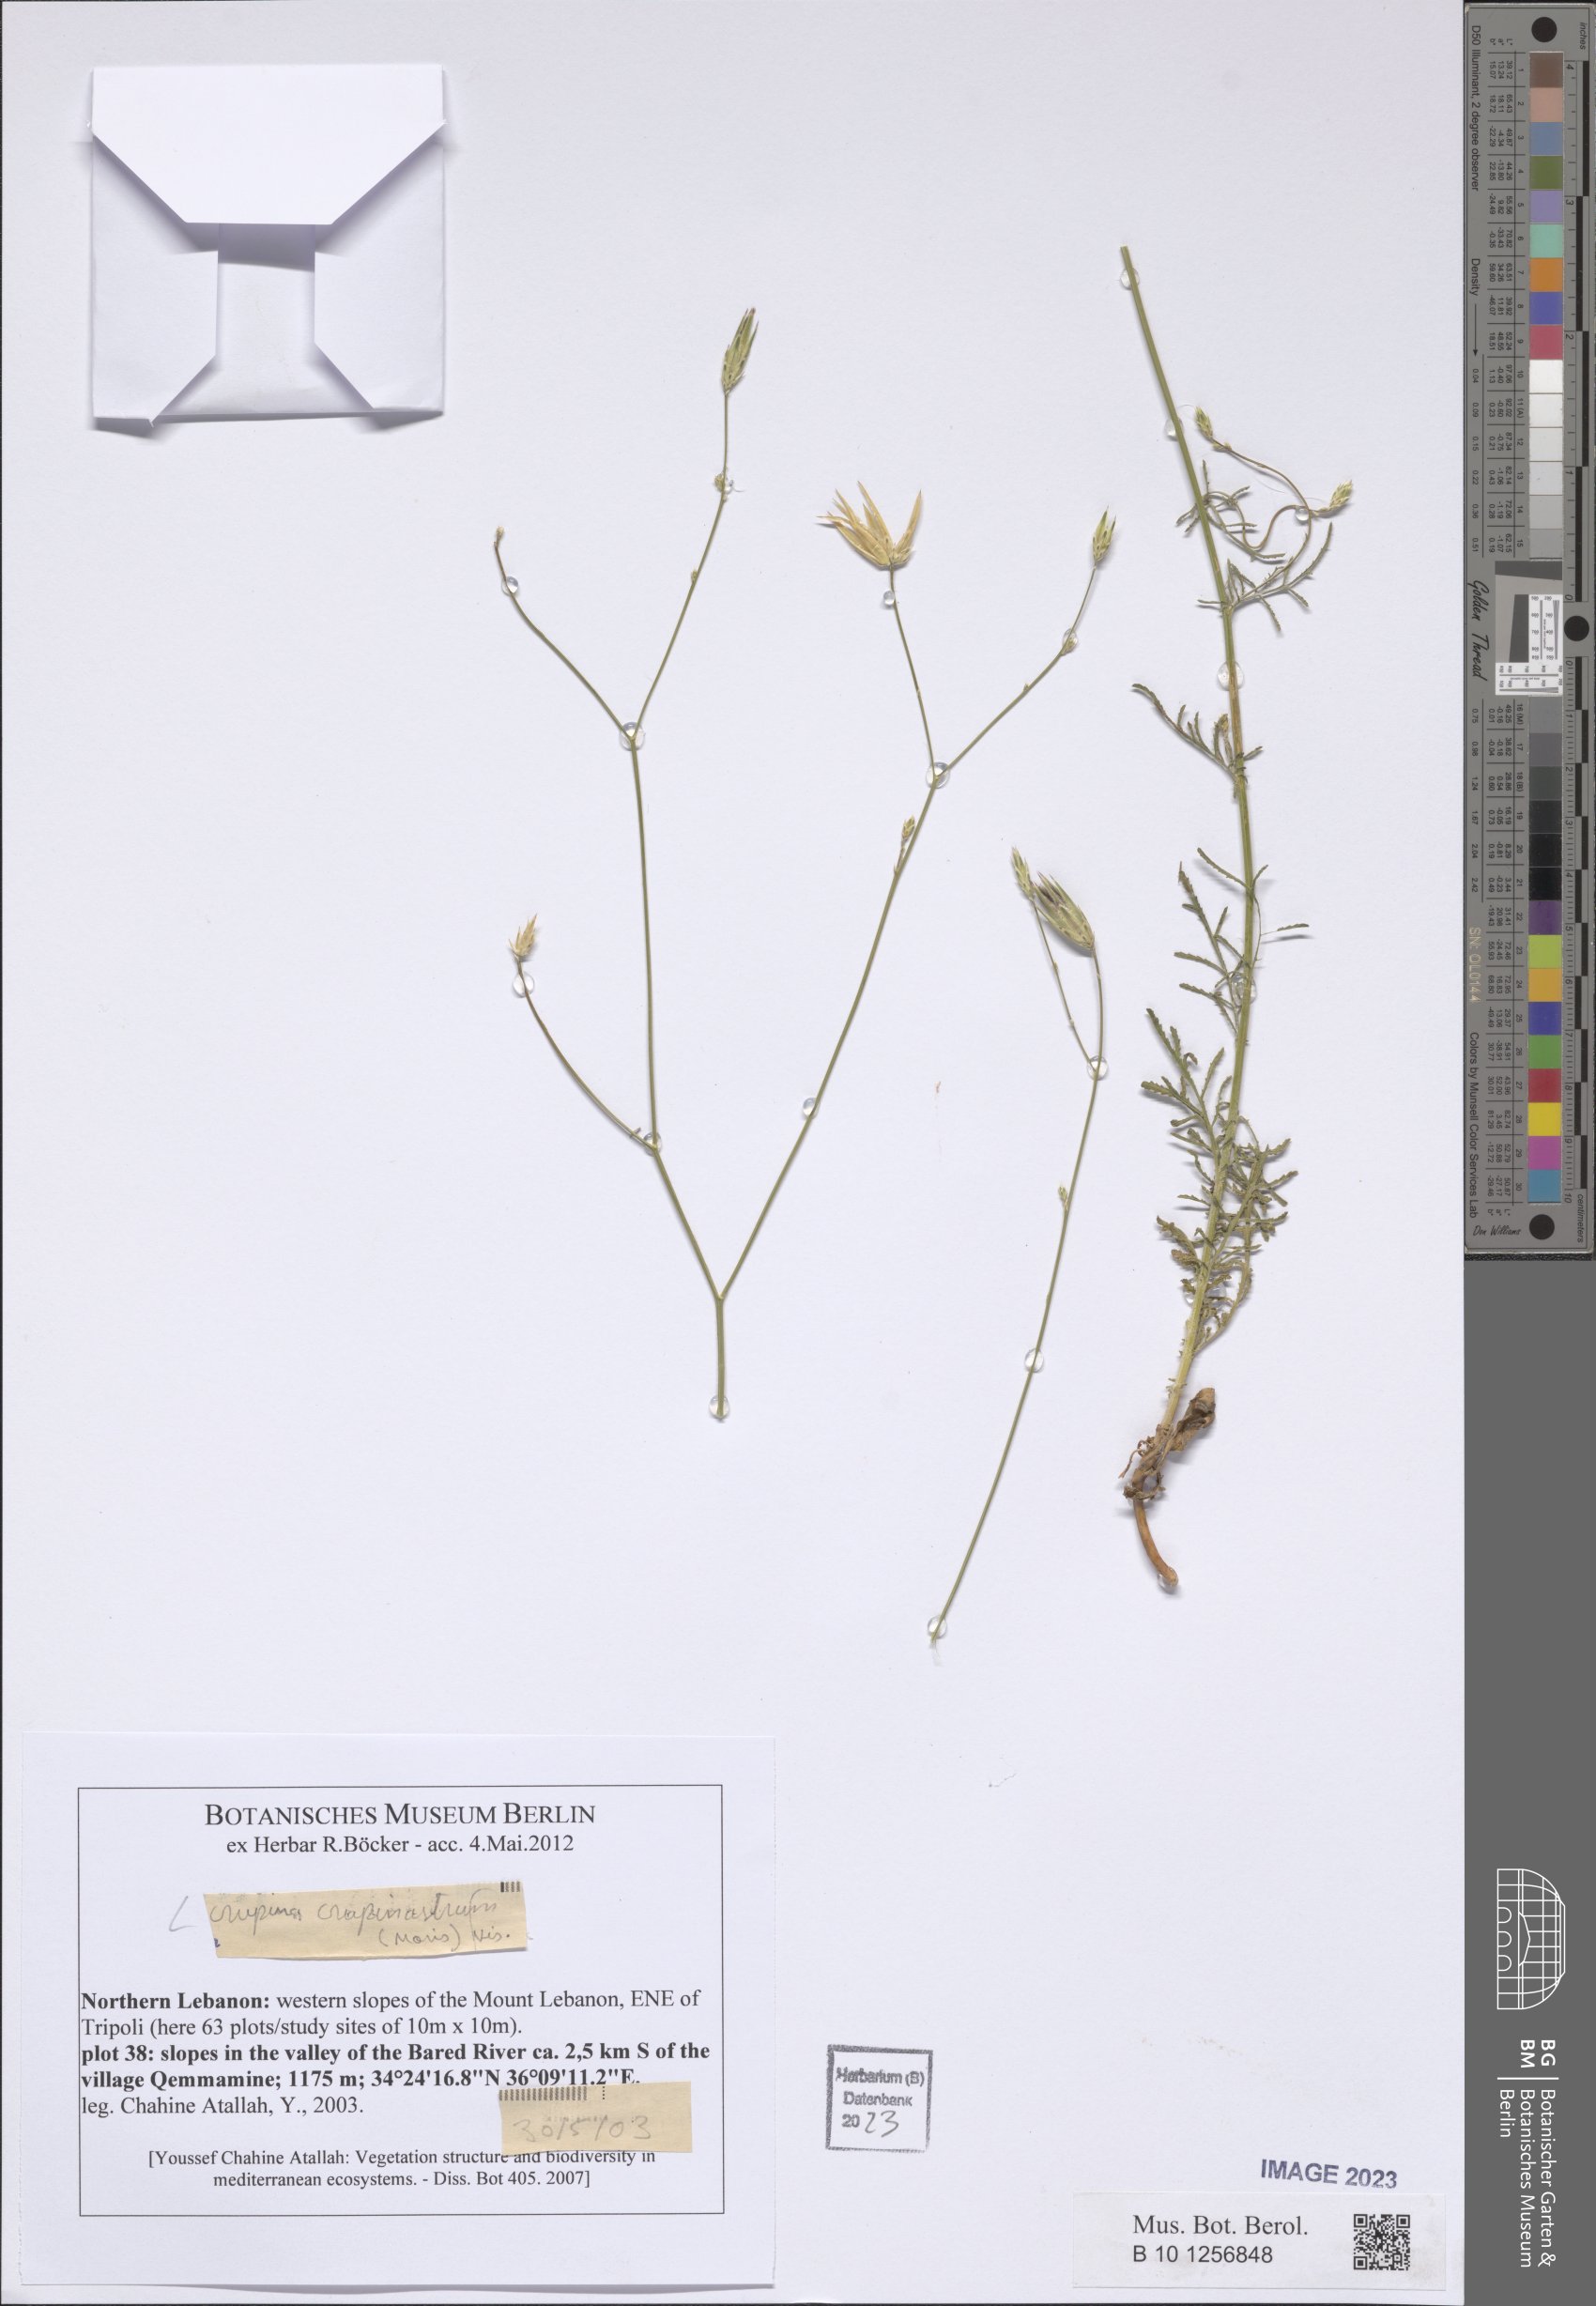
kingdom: Plantae
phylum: Tracheophyta
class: Magnoliopsida
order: Asterales
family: Asteraceae
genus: Crupina
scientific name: Crupina crupinastrum
